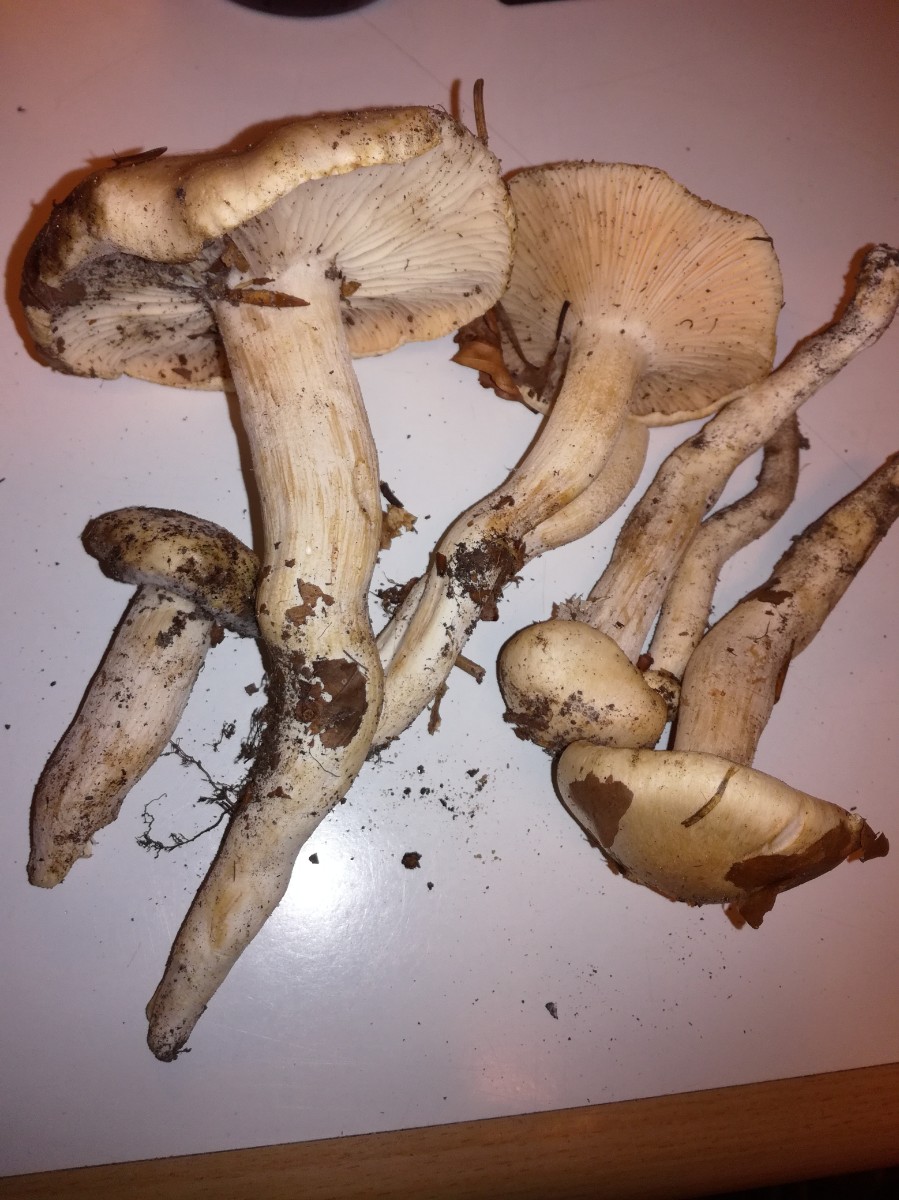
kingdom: Fungi
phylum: Basidiomycota
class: Agaricomycetes
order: Agaricales
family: Hygrophoraceae
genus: Hygrophorus
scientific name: Hygrophorus penarius
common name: spiselig sneglehat
